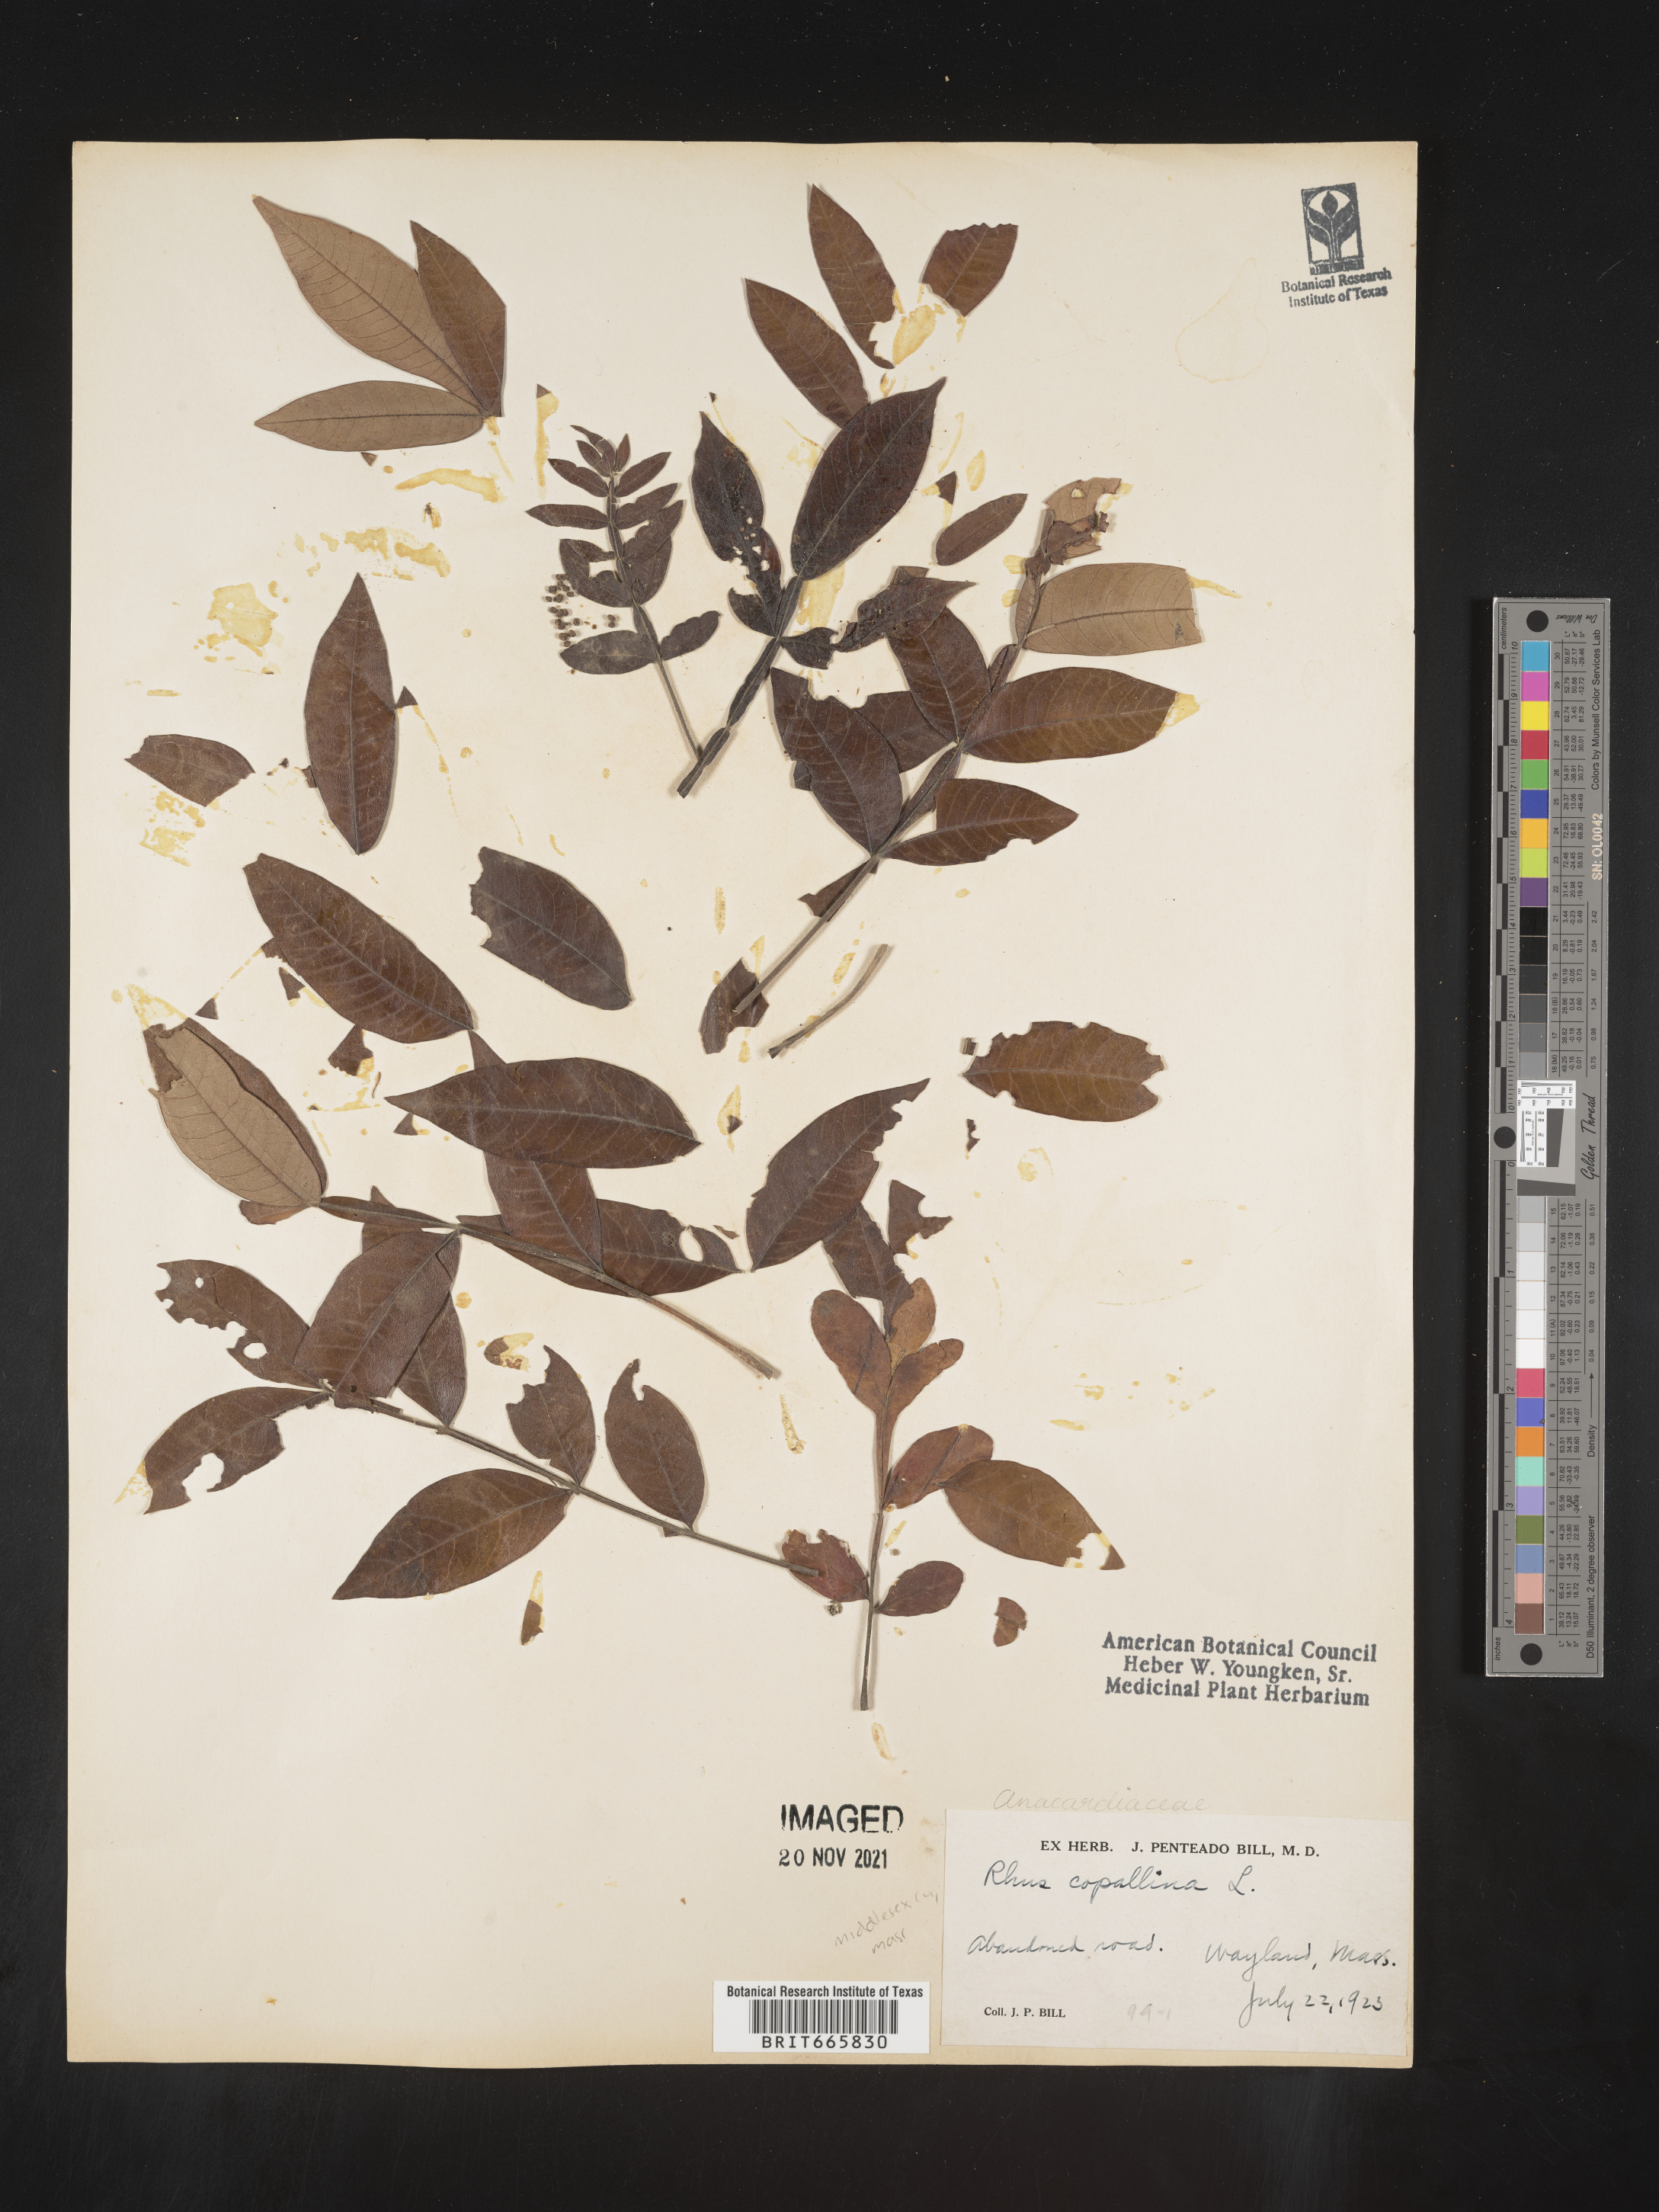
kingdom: Plantae
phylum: Tracheophyta
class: Magnoliopsida
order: Sapindales
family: Anacardiaceae
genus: Rhus
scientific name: Rhus copallina
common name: Shining sumac
